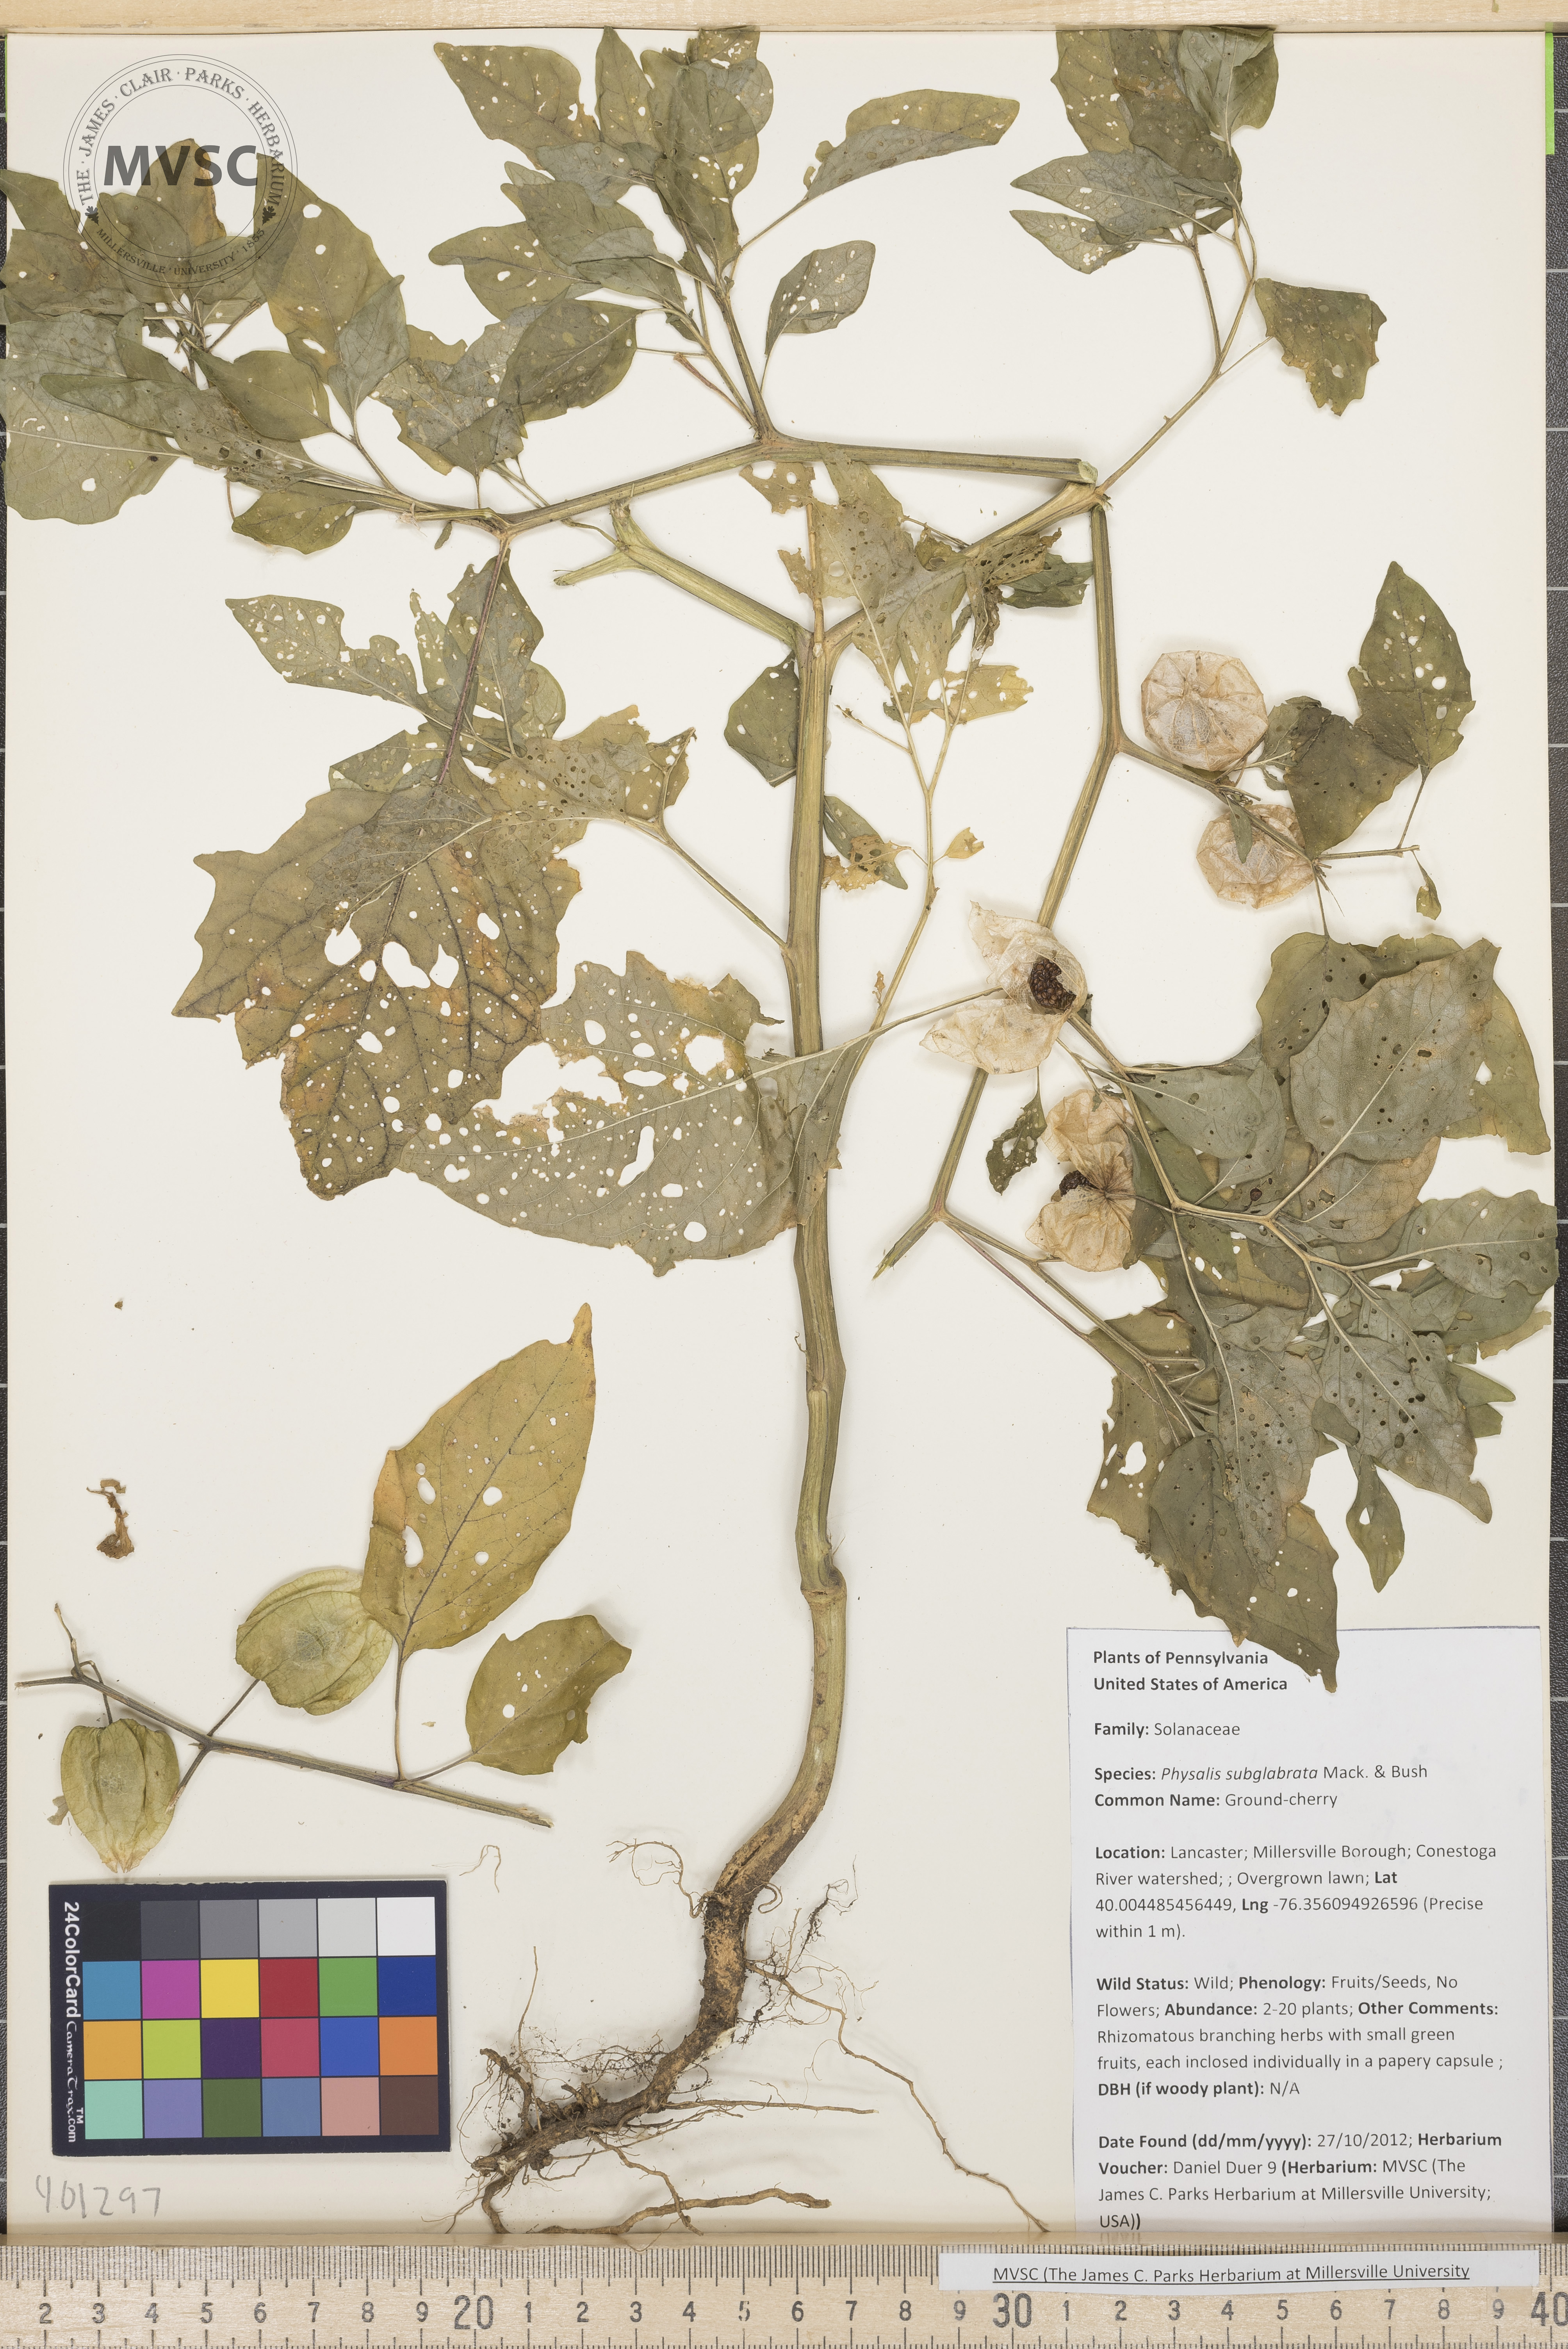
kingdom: Plantae
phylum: Tracheophyta
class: Magnoliopsida
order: Solanales
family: Solanaceae
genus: Physalis
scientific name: Physalis longifolia
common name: Ground-cherry
